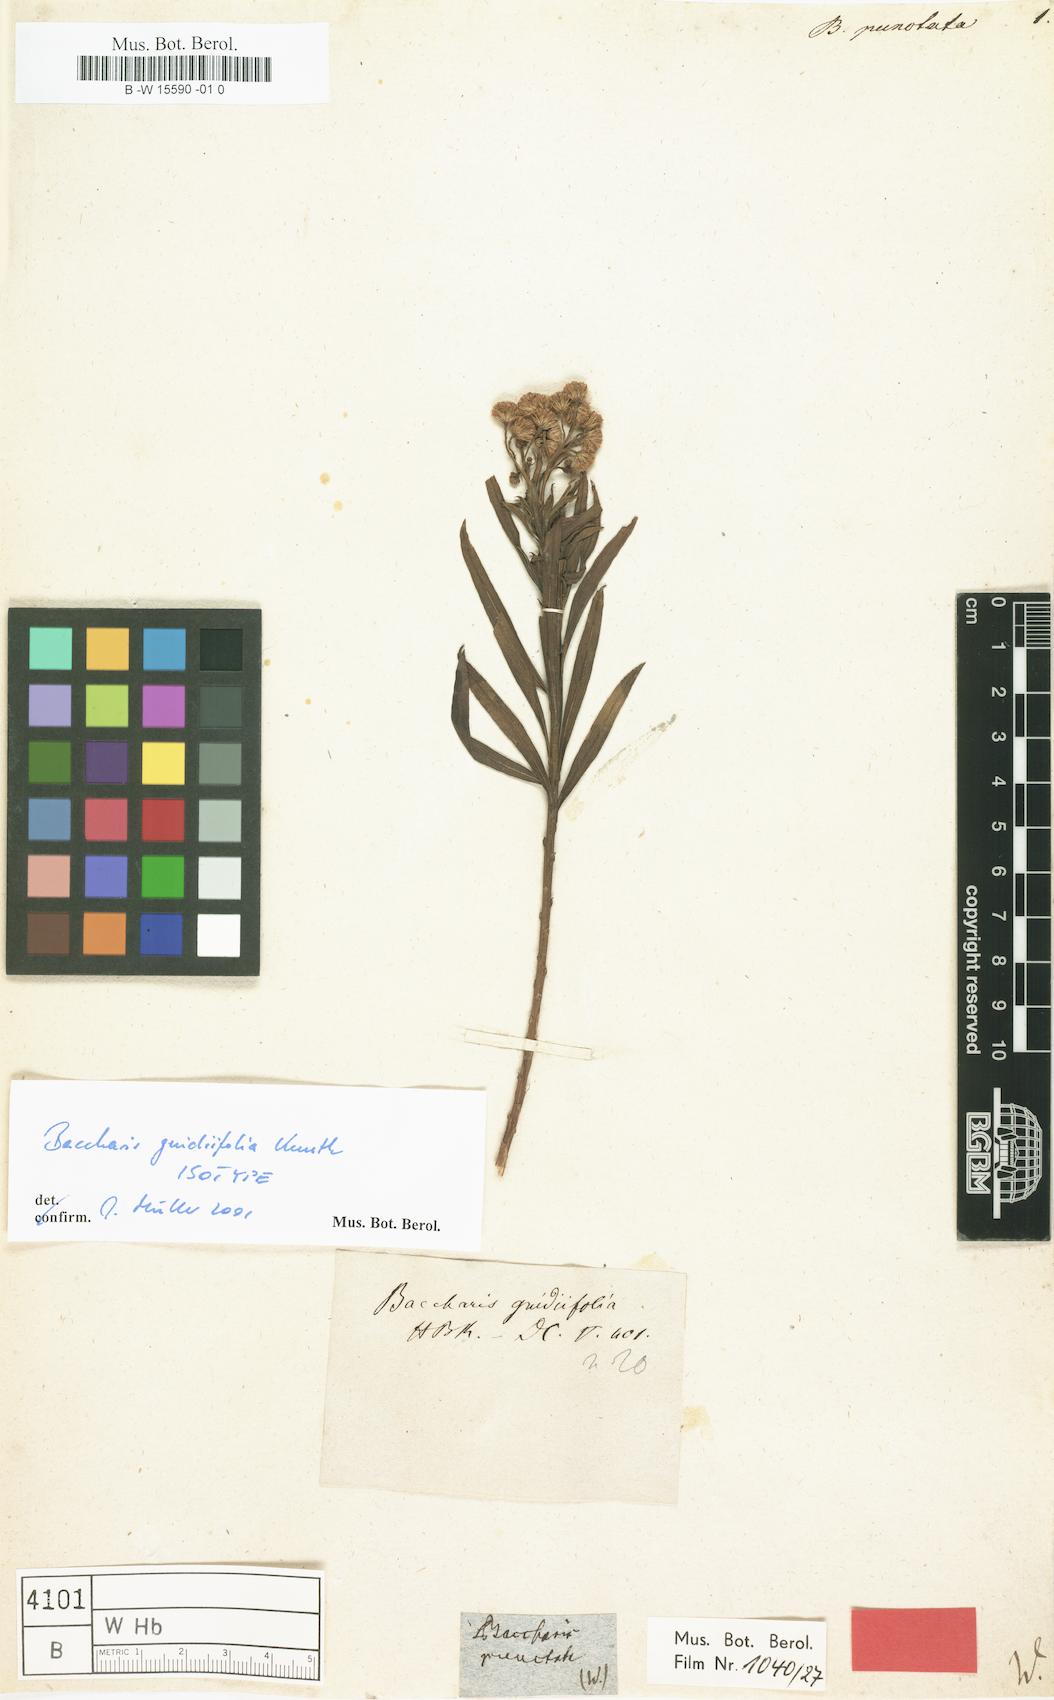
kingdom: Plantae
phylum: Tracheophyta
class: Magnoliopsida
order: Asterales
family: Asteraceae
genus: Baccharis
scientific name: Baccharis punctulata
